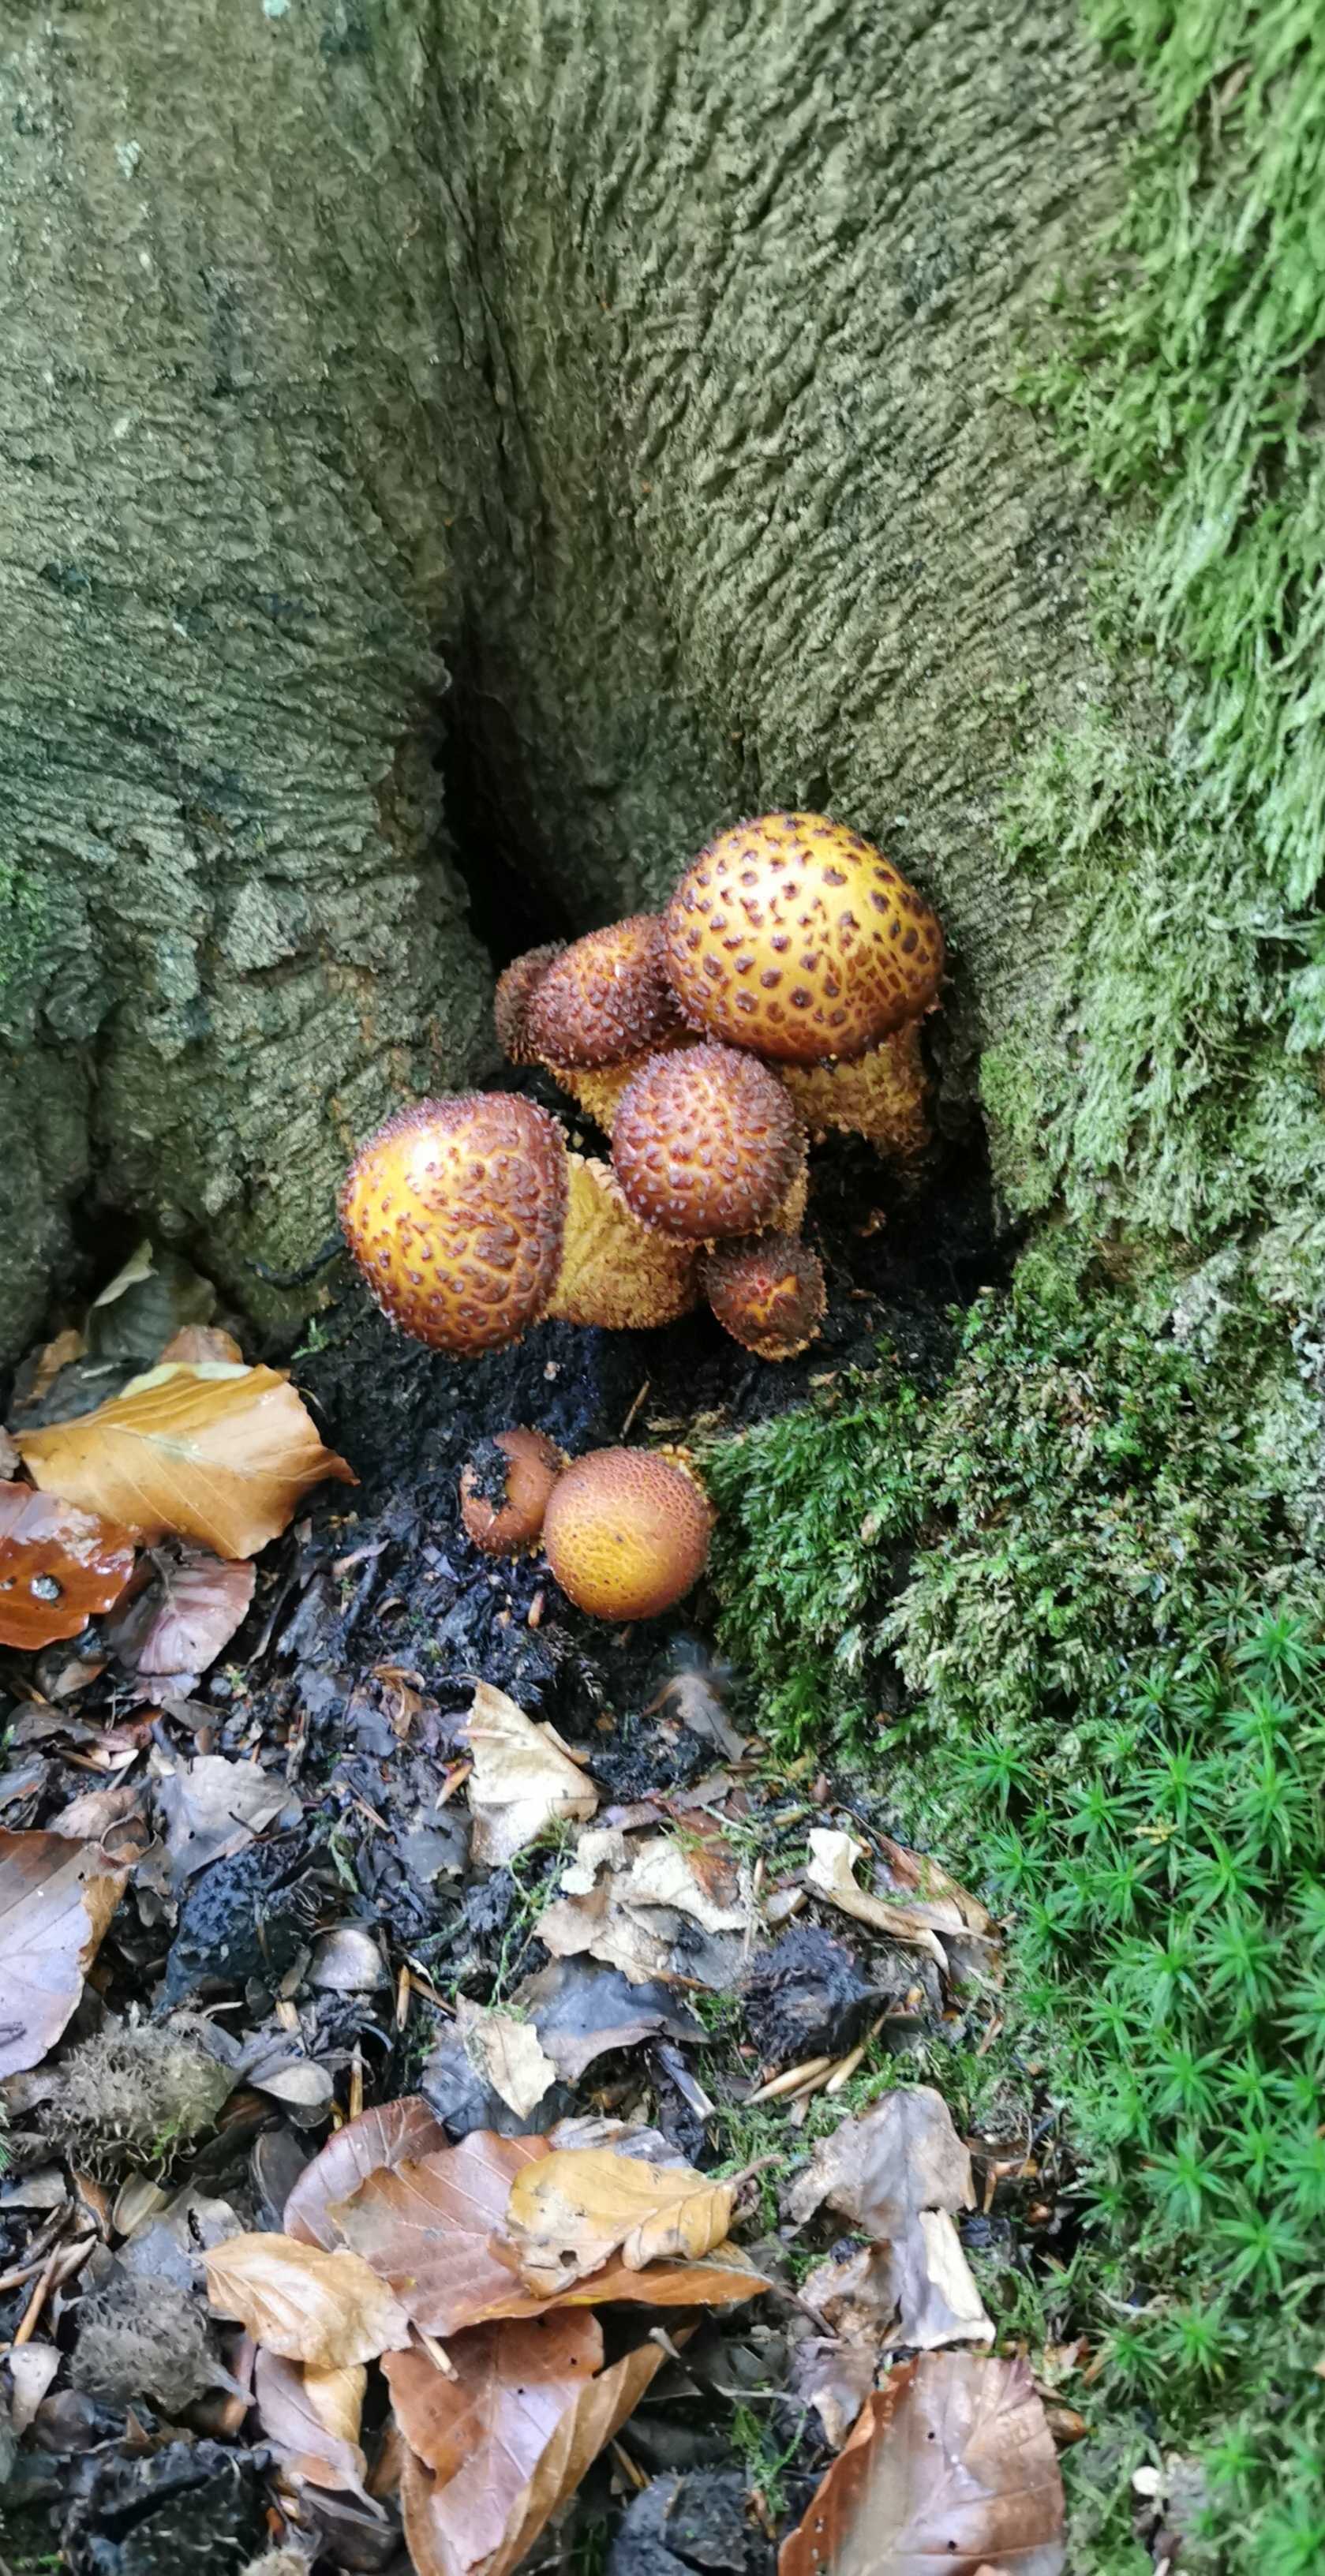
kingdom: Fungi
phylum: Basidiomycota
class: Agaricomycetes
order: Agaricales
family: Strophariaceae
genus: Pholiota
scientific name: Pholiota jahnii
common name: slimet skælhat
